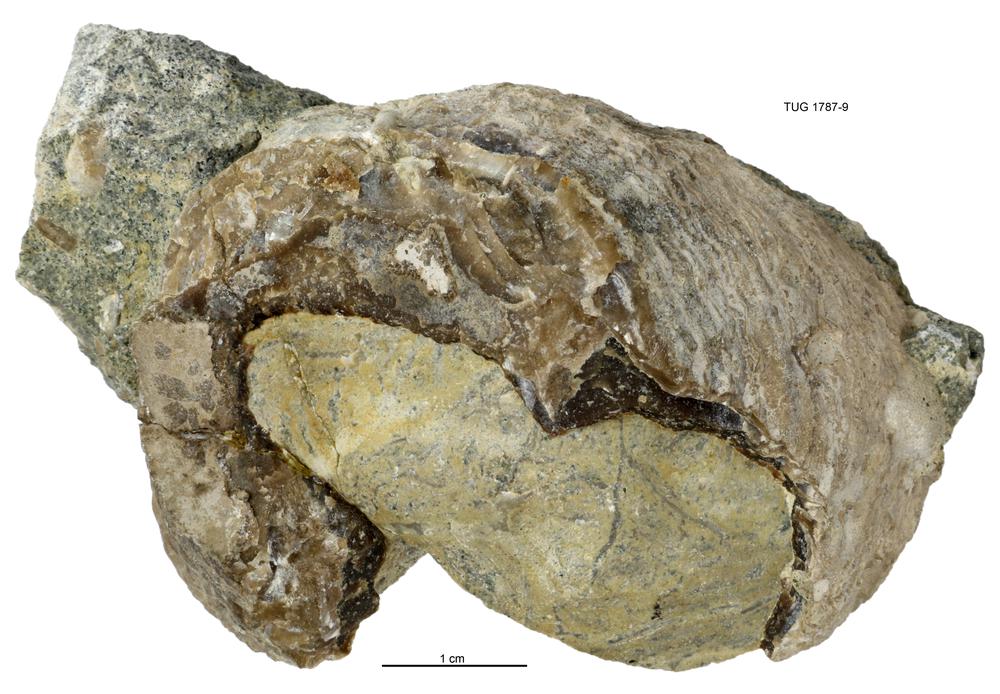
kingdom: Animalia
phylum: Mollusca
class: Monoplacophora
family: Metoptomatidae
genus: Metoptoma
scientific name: Metoptoma
